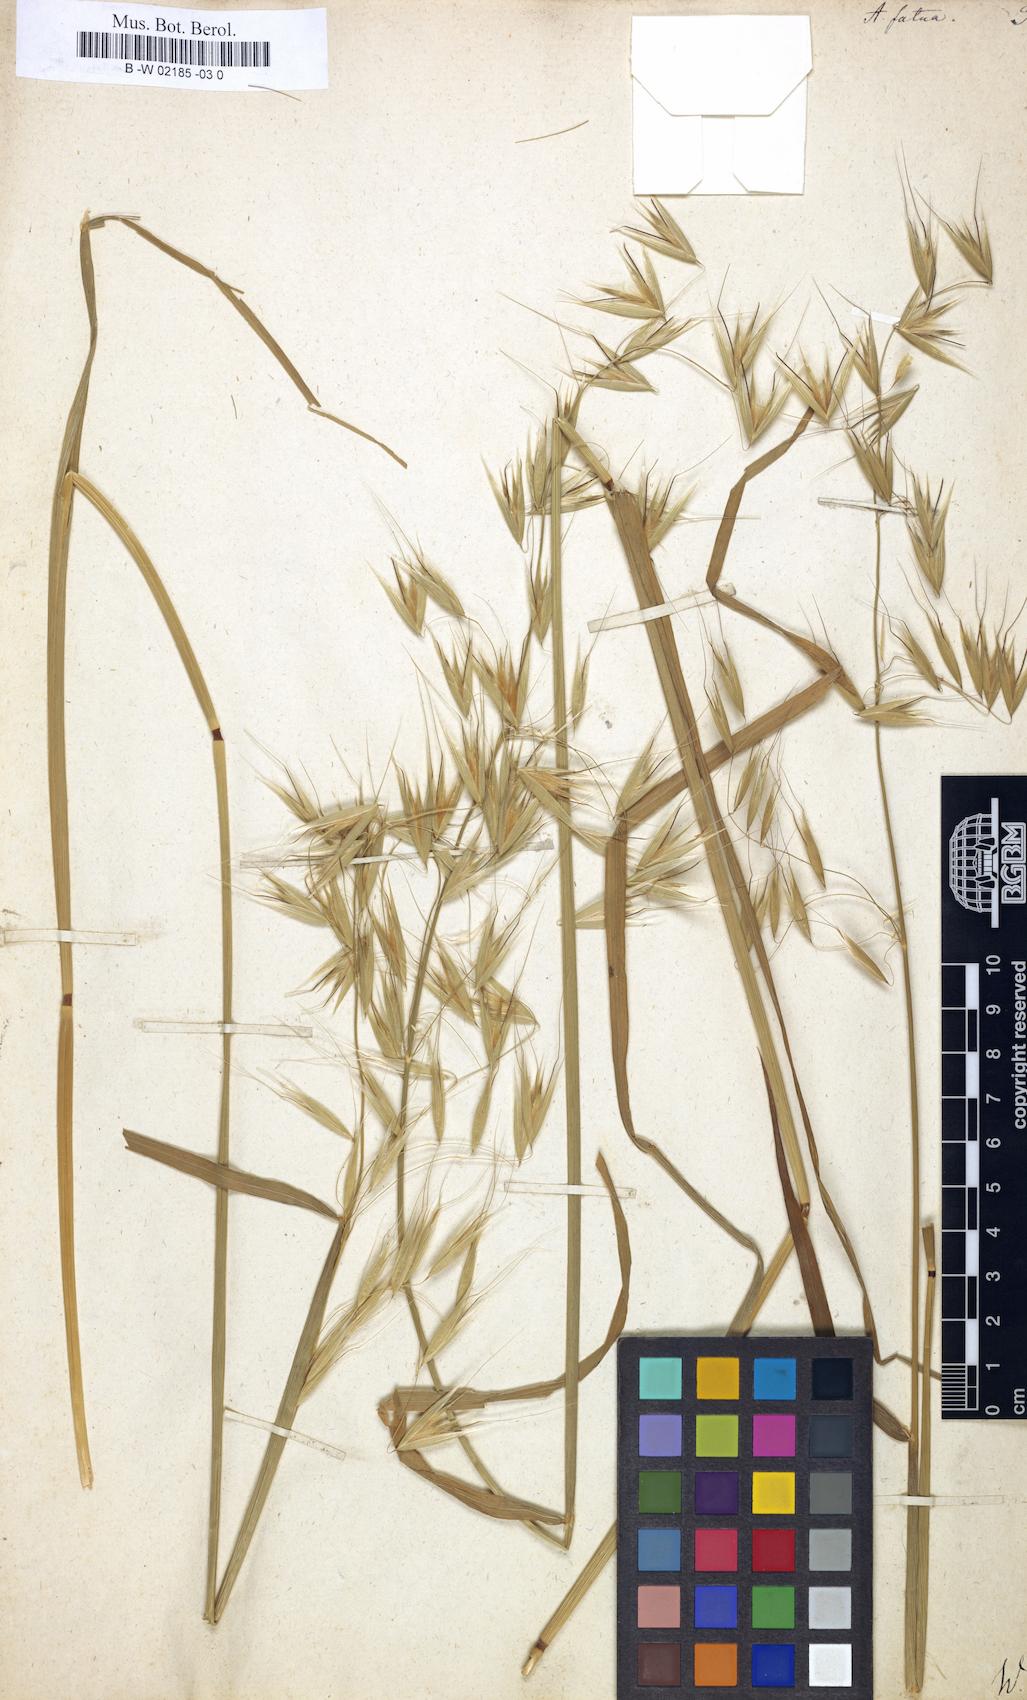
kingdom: Plantae
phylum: Tracheophyta
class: Liliopsida
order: Poales
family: Poaceae
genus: Avena
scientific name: Avena fatua
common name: Wild oat
